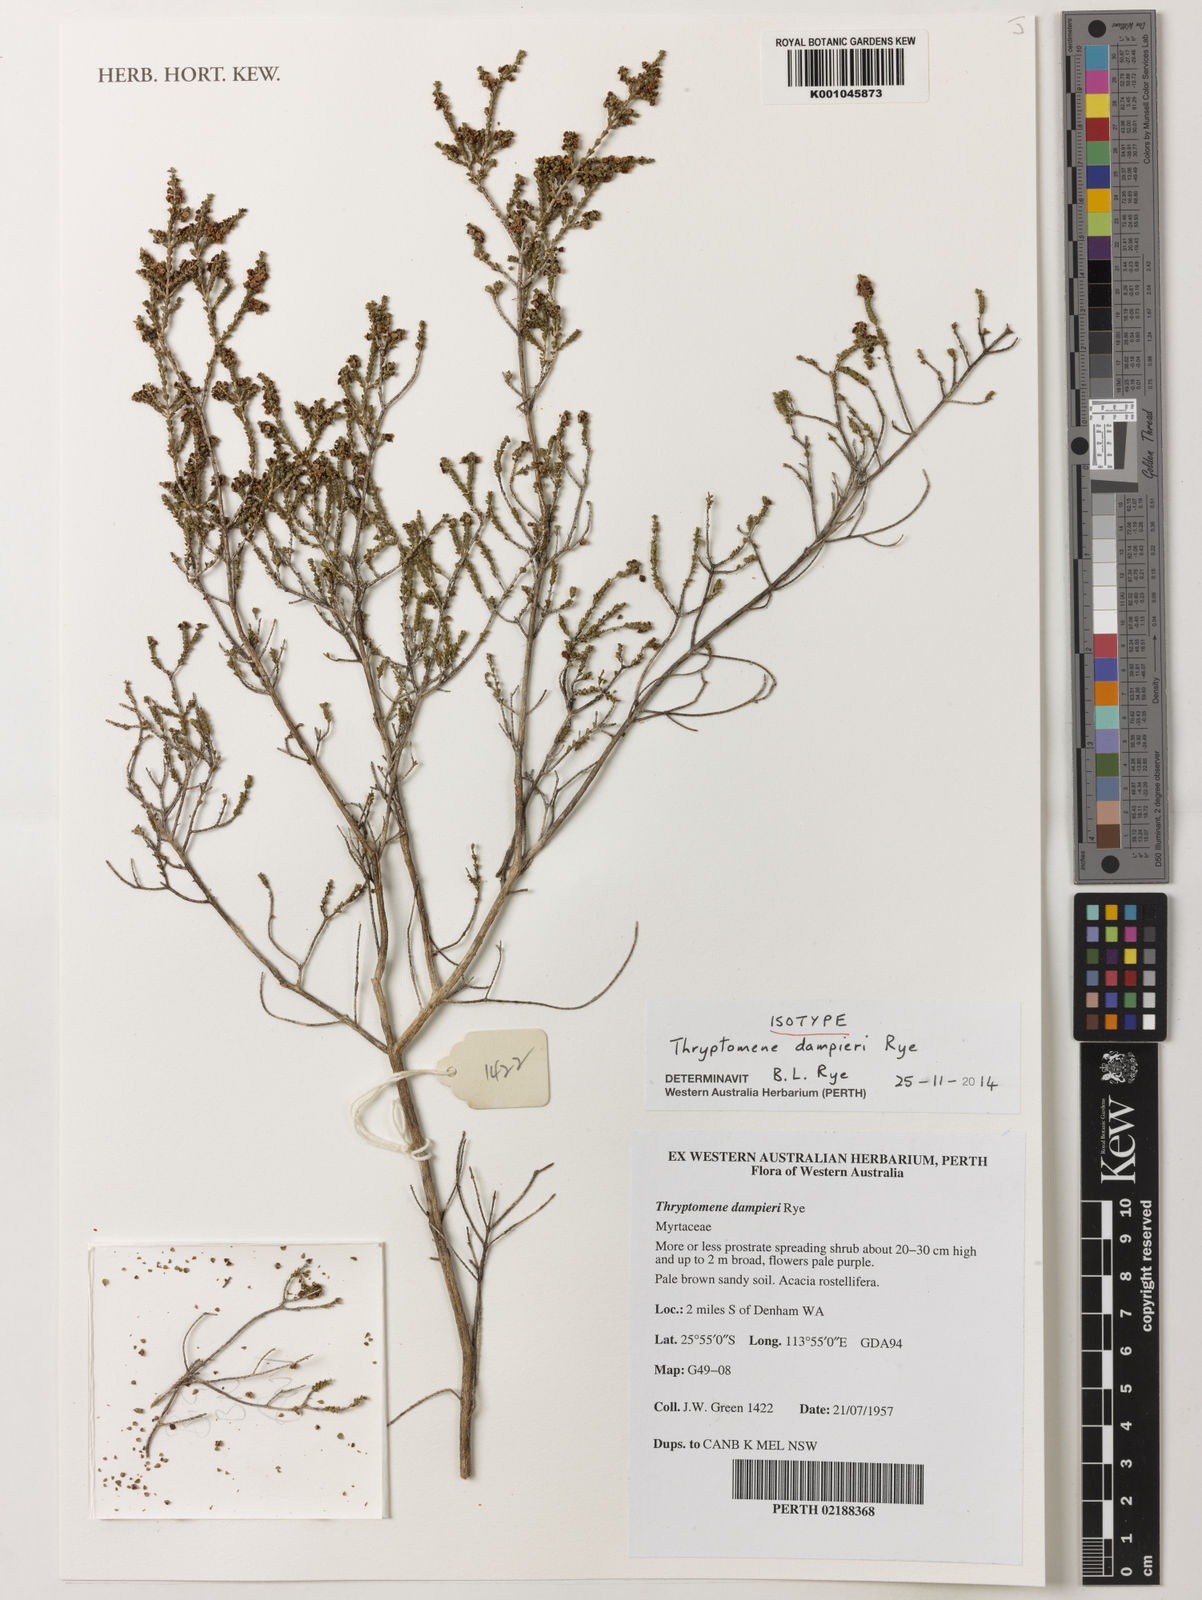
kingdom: Plantae
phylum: Tracheophyta
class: Magnoliopsida
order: Myrtales
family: Myrtaceae
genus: Thryptomene
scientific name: Thryptomene dampieri
